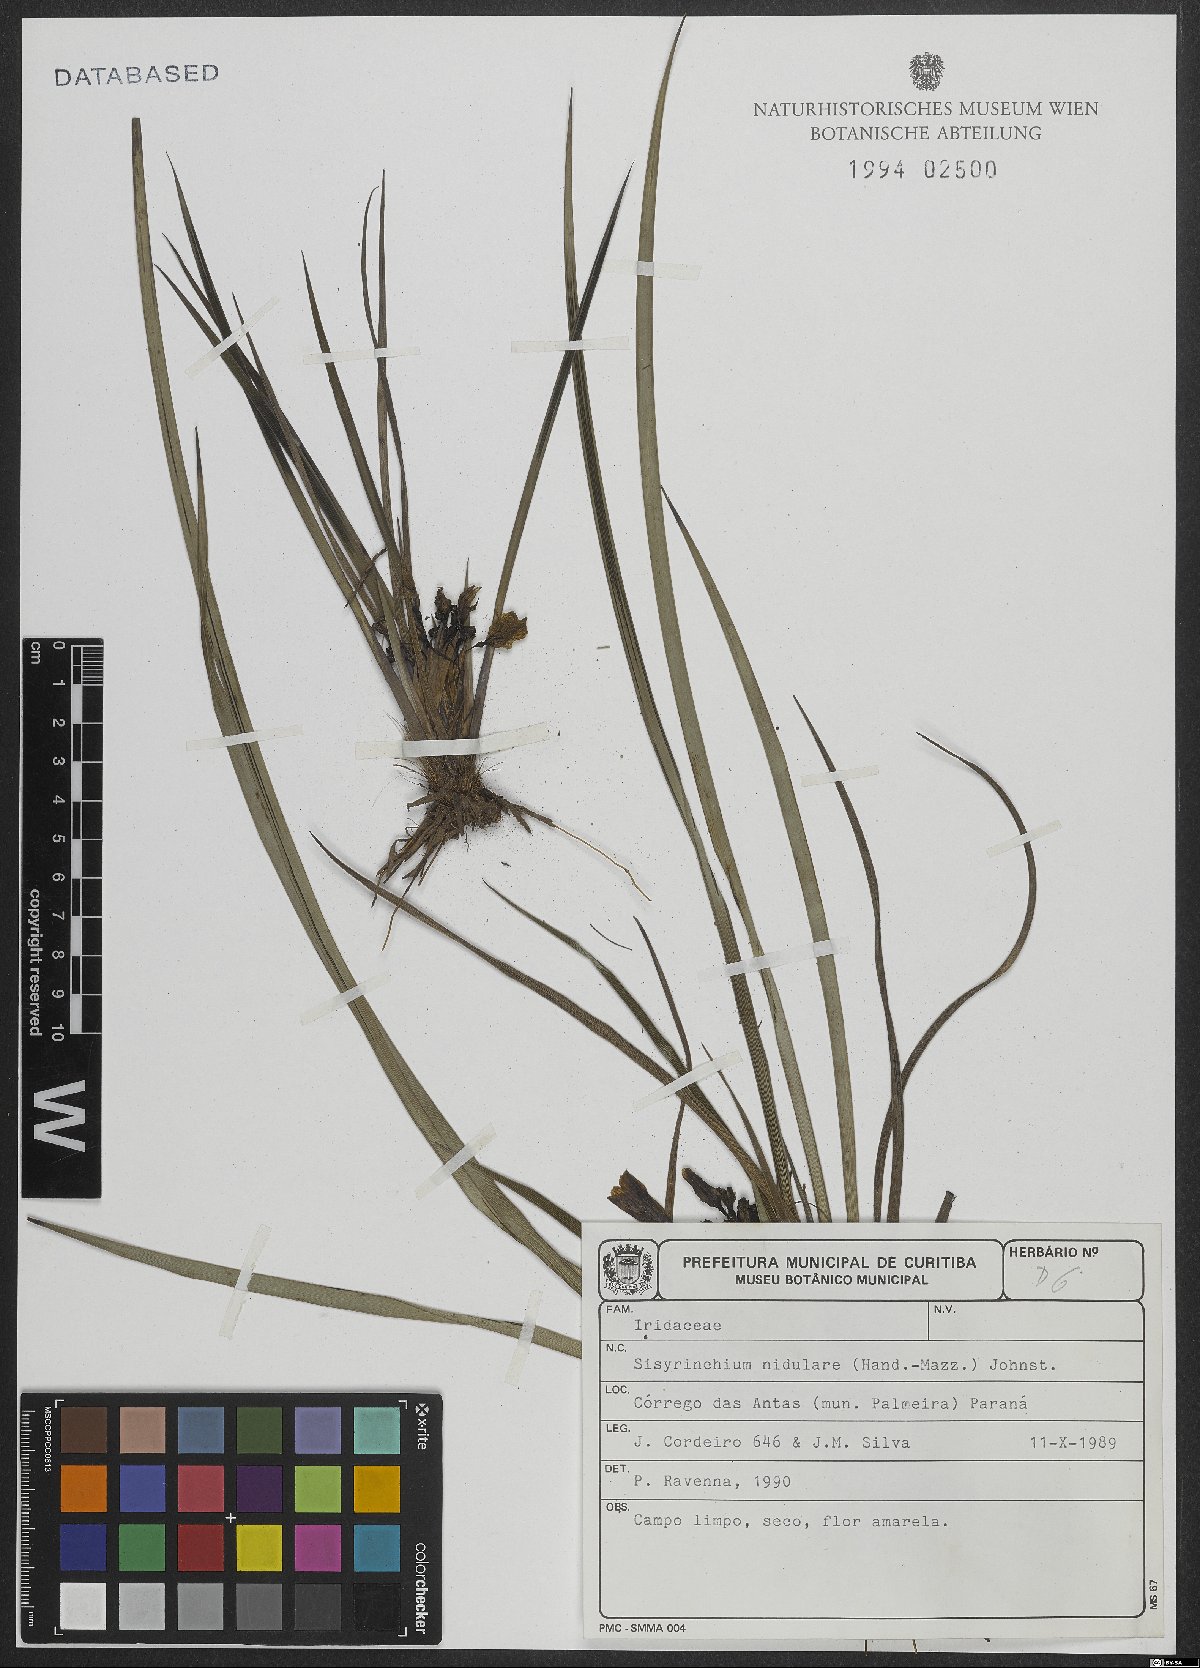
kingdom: Plantae
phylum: Tracheophyta
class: Liliopsida
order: Asparagales
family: Iridaceae
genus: Sisyrinchium
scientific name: Sisyrinchium nidulare
